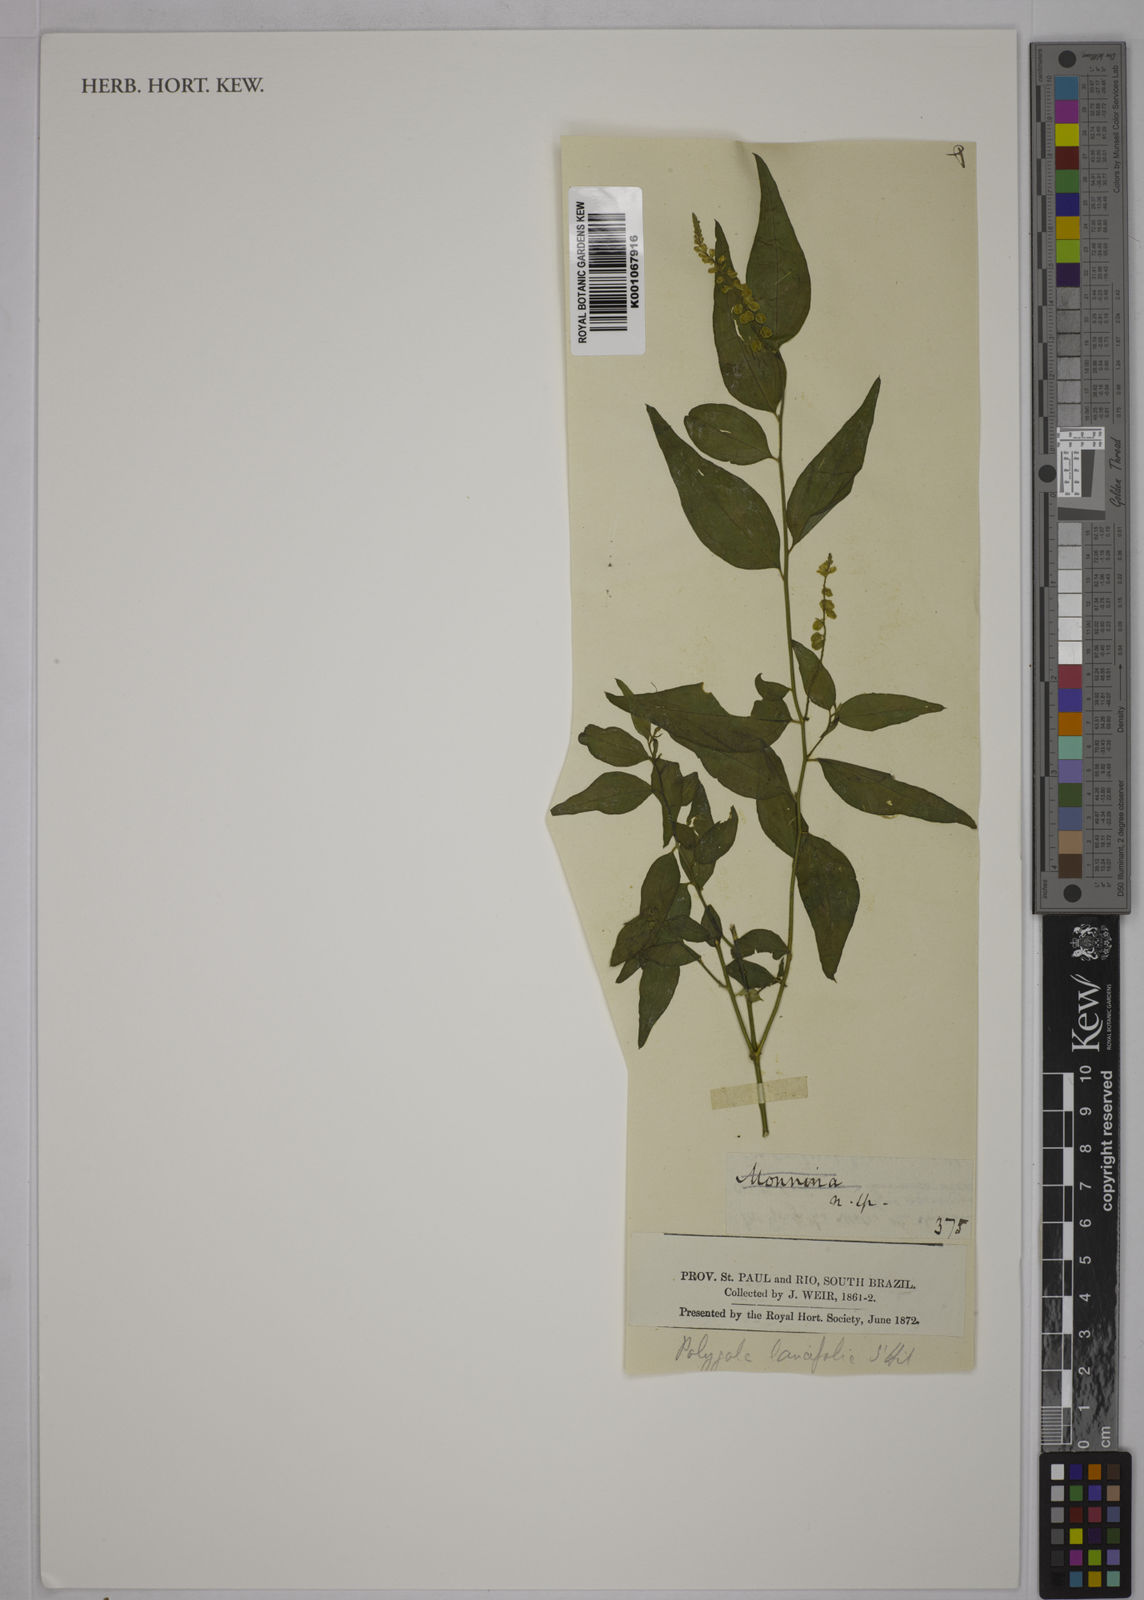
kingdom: Plantae
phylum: Tracheophyta
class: Magnoliopsida
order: Fabales
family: Polygalaceae
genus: Polygala
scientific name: Polygala lancifolia
